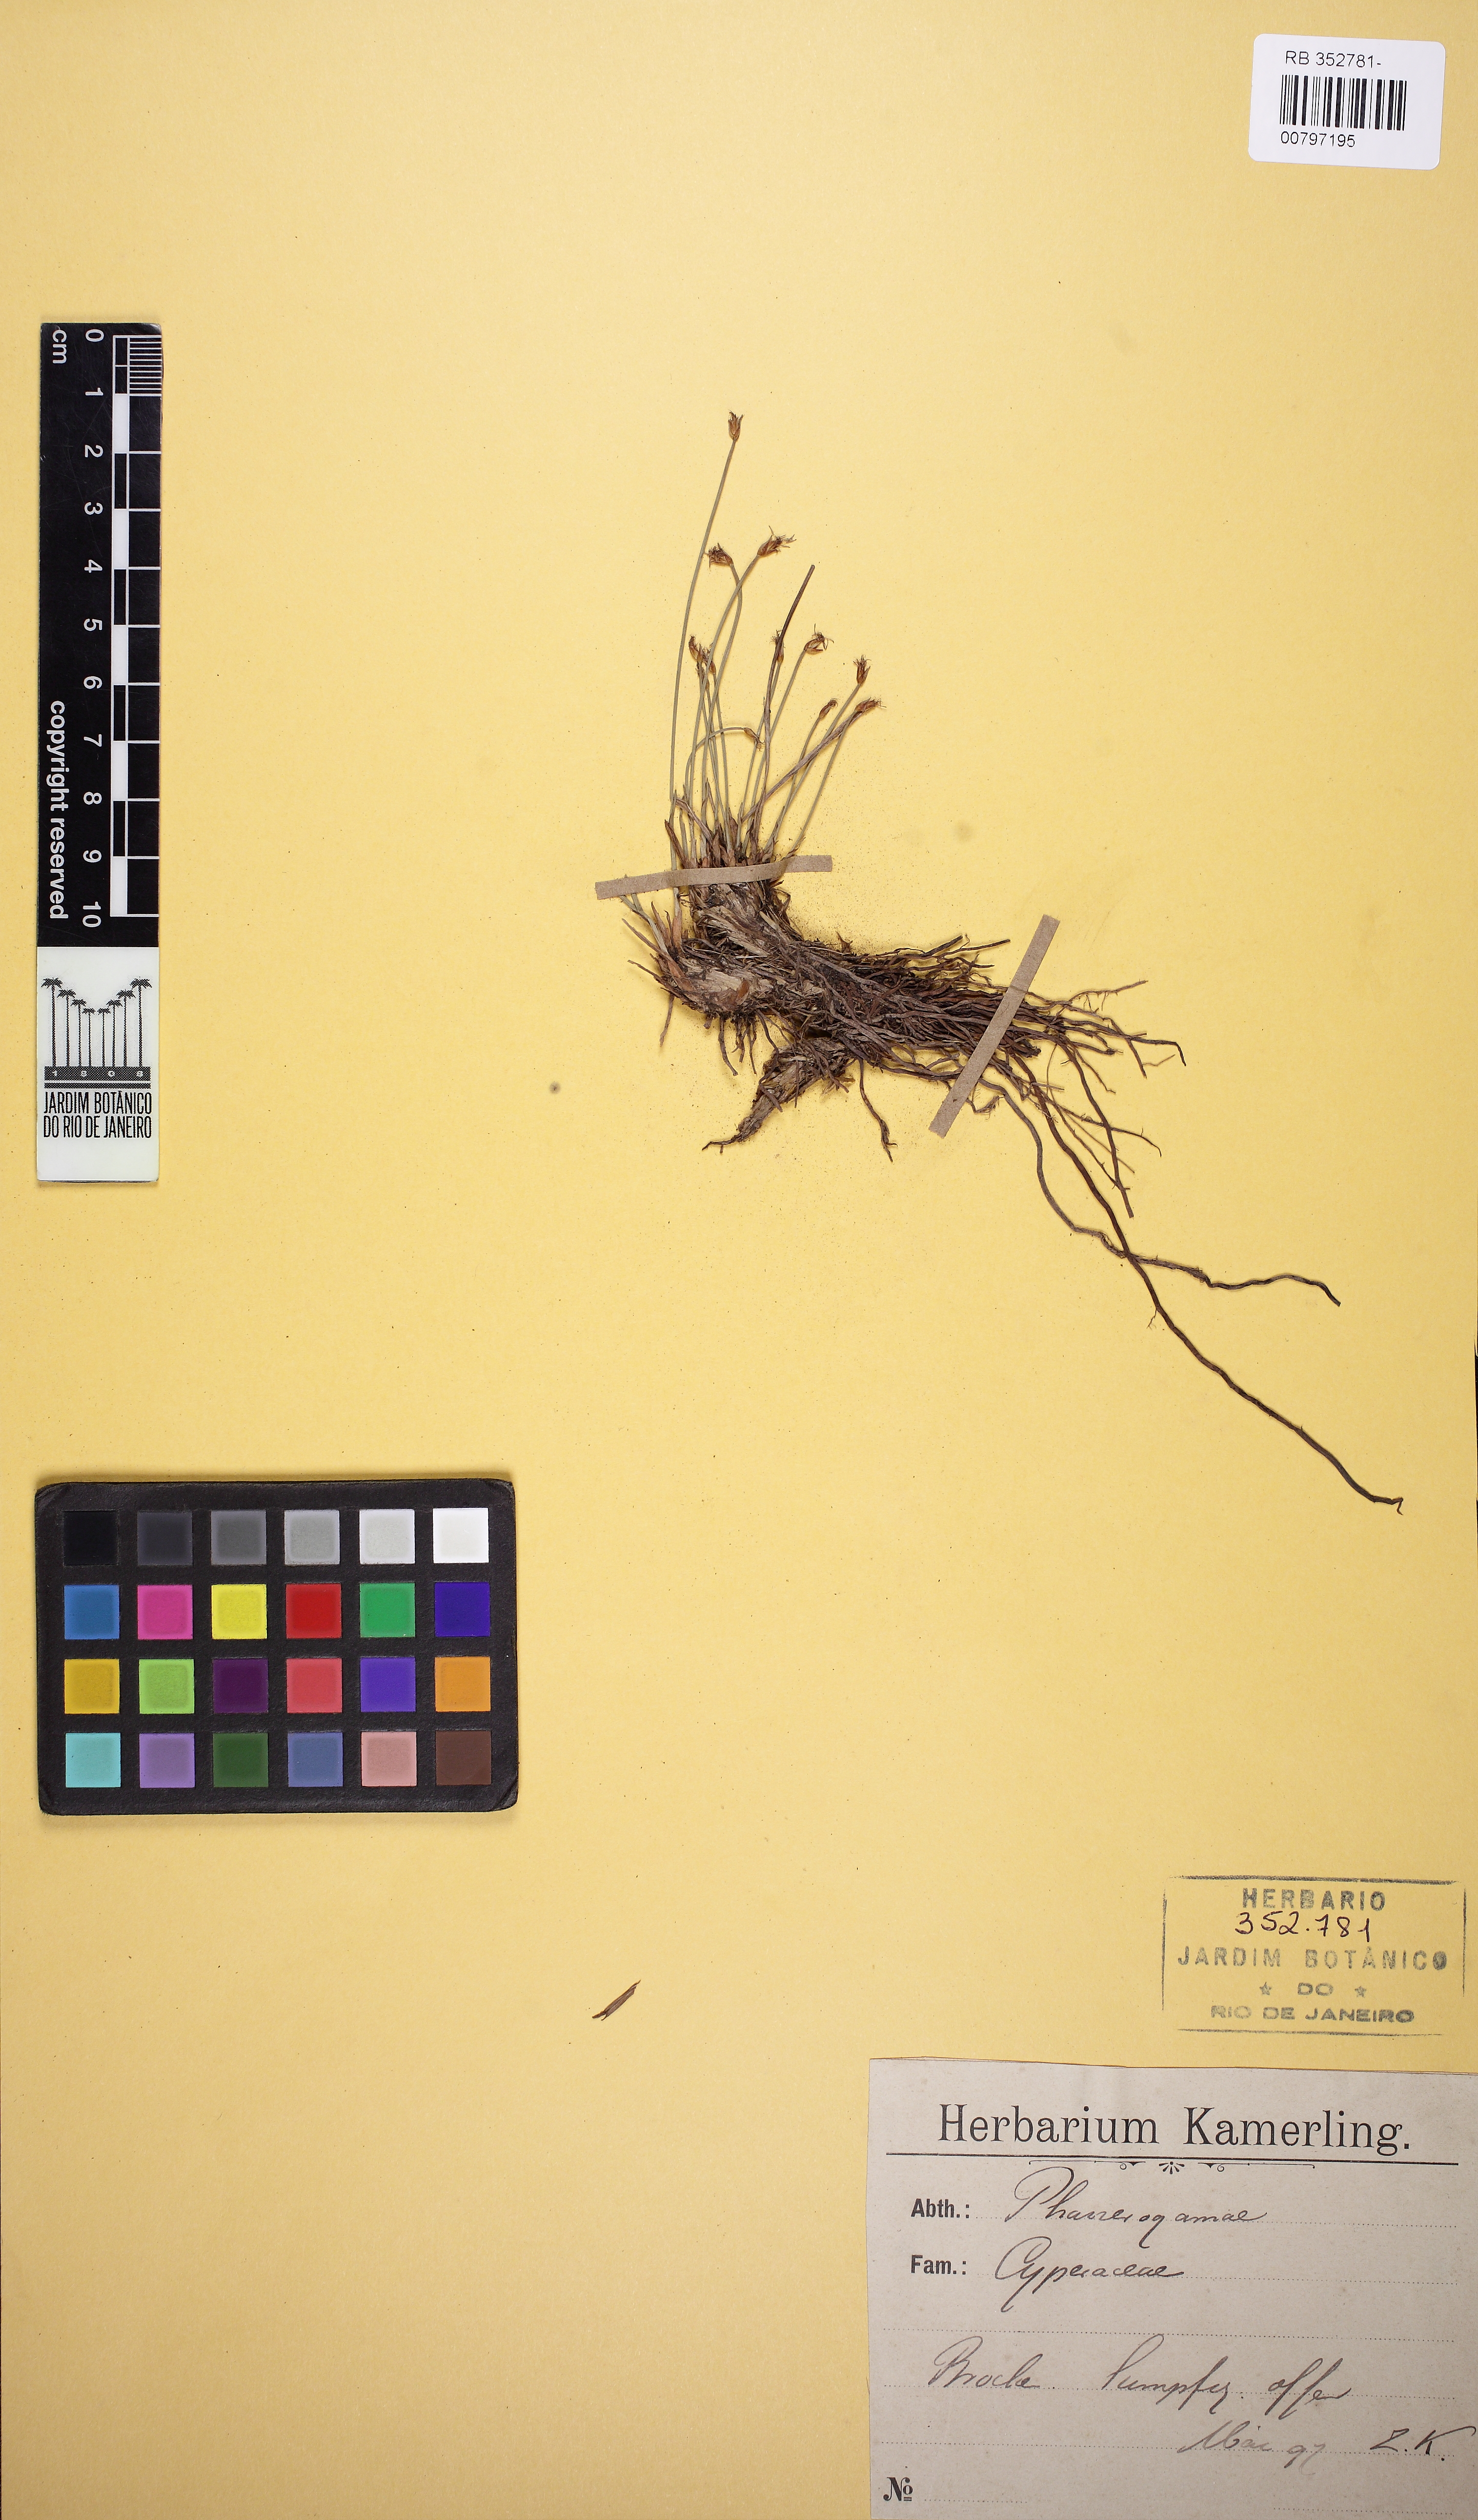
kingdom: Plantae
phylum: Tracheophyta
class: Liliopsida
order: Poales
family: Cyperaceae
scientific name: Cyperaceae
